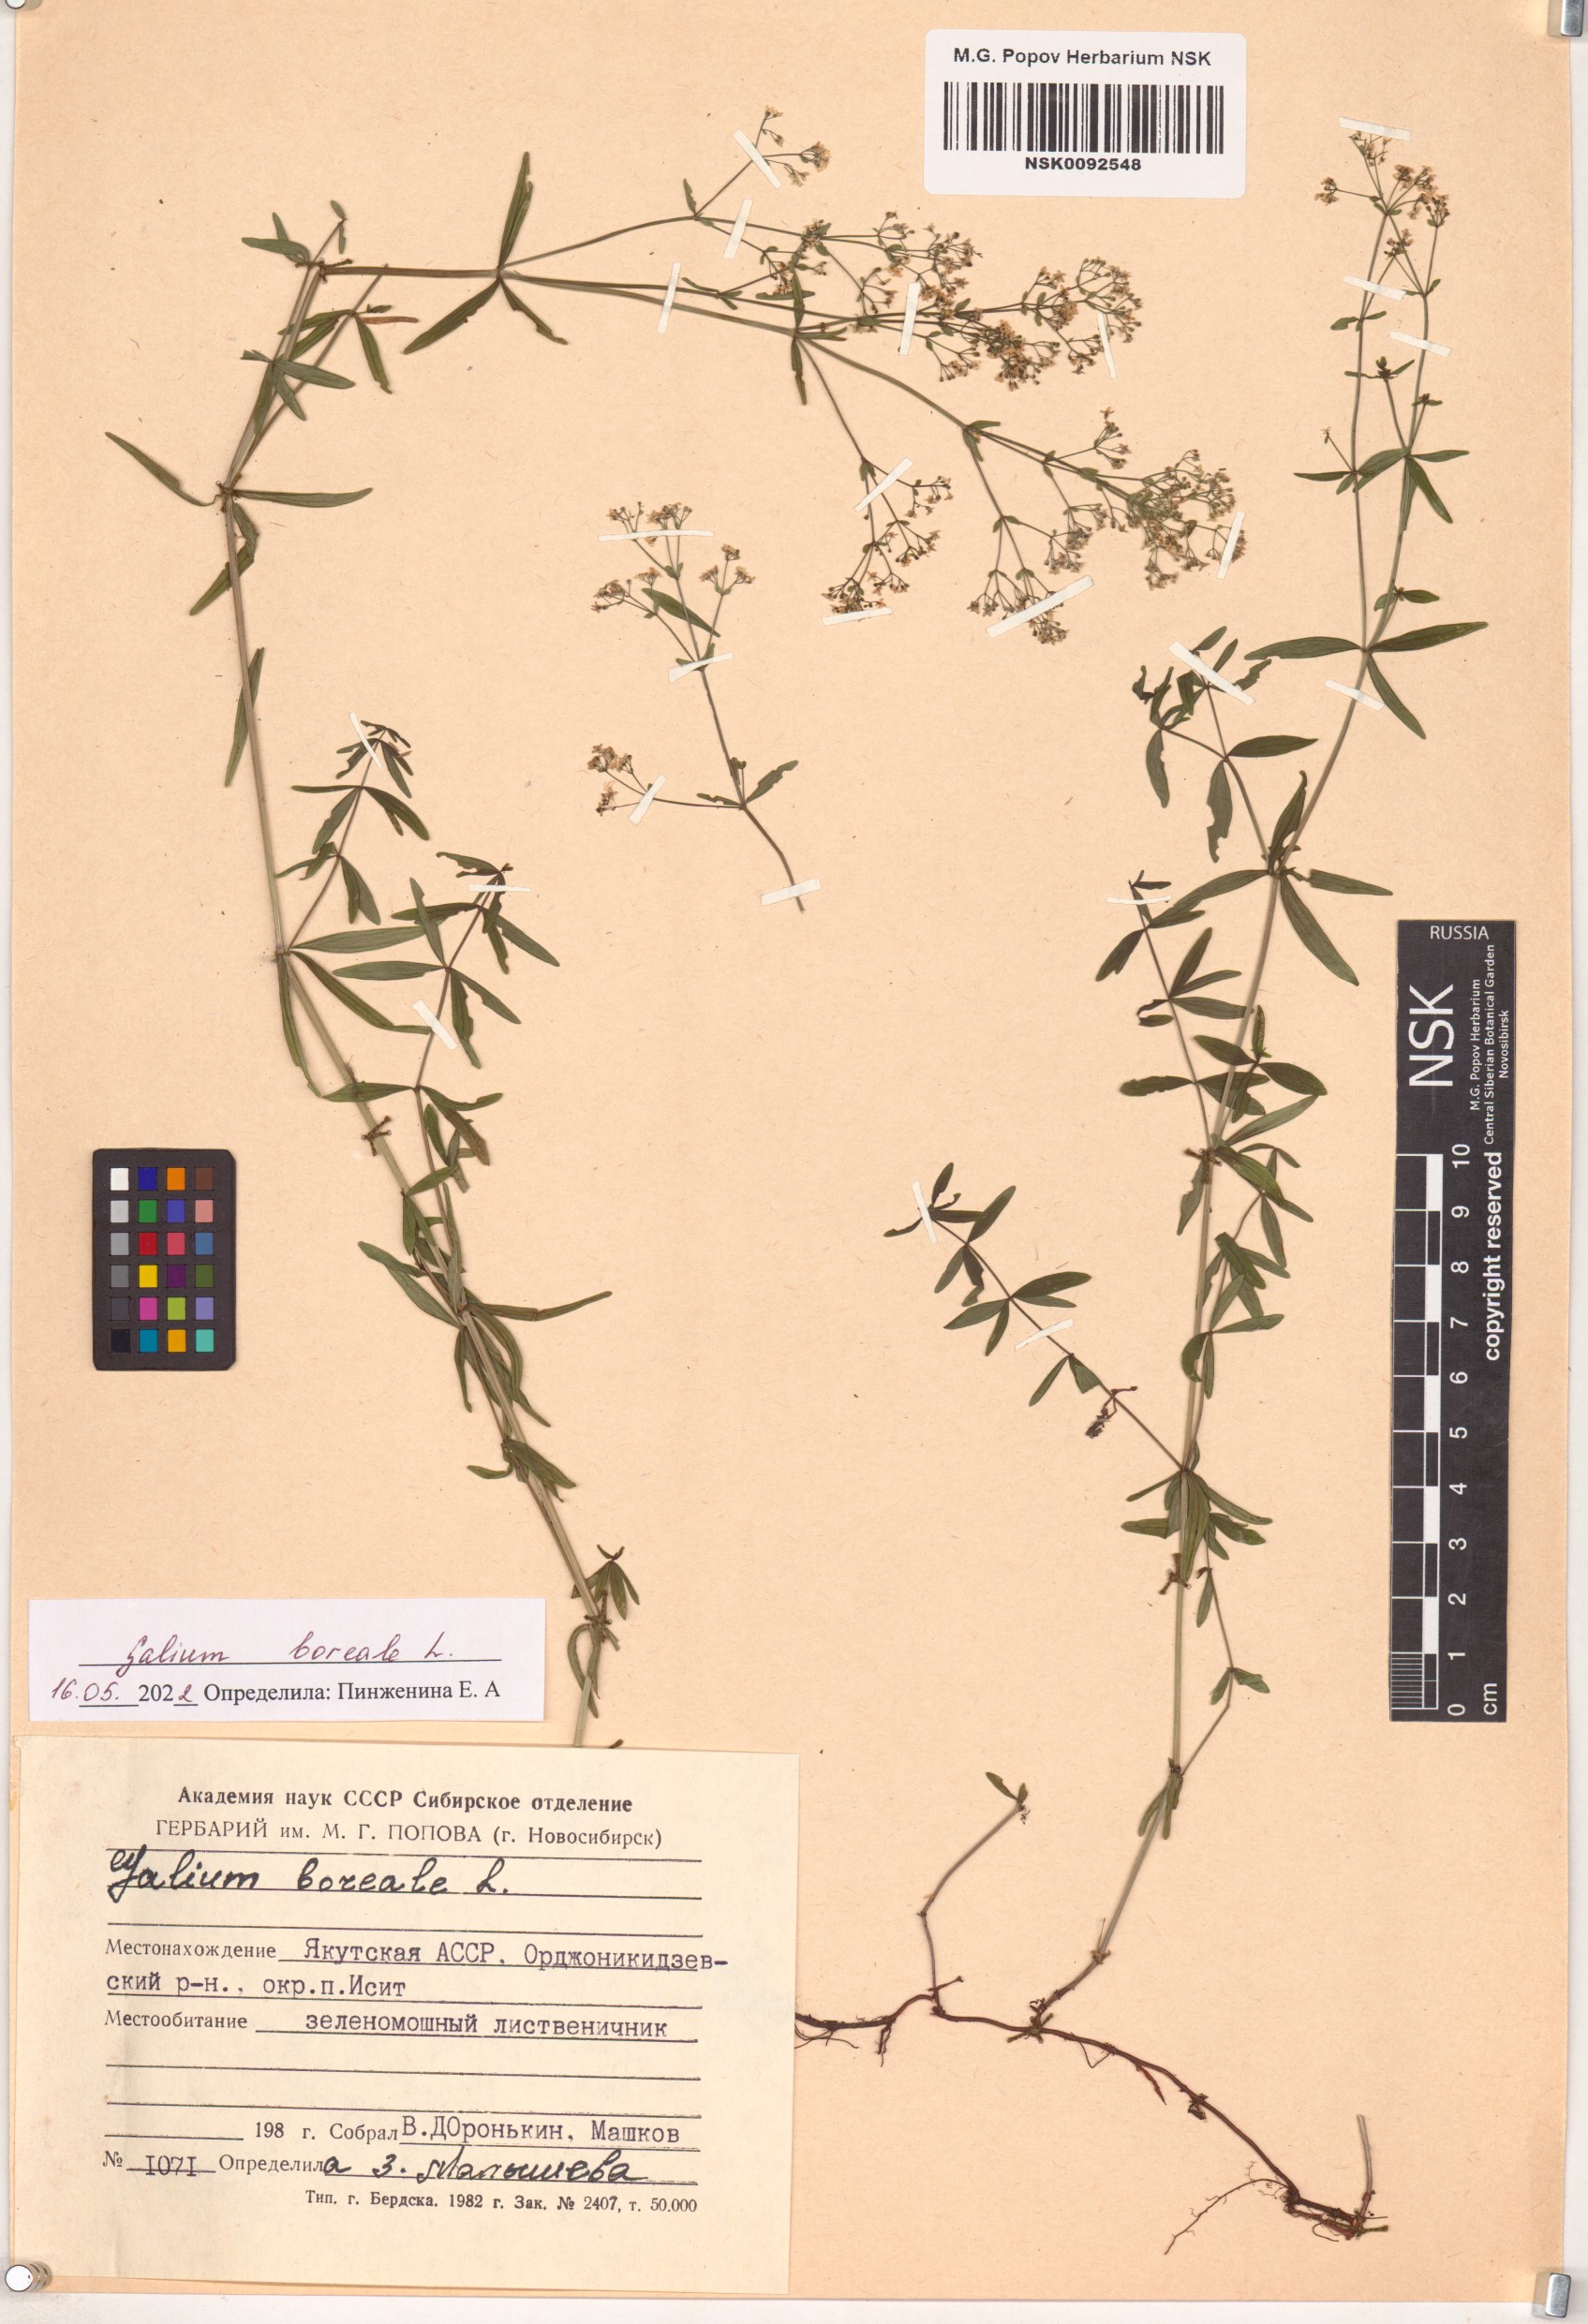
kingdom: Plantae
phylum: Tracheophyta
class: Magnoliopsida
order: Gentianales
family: Rubiaceae
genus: Galium
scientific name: Galium boreale
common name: Northern bedstraw
